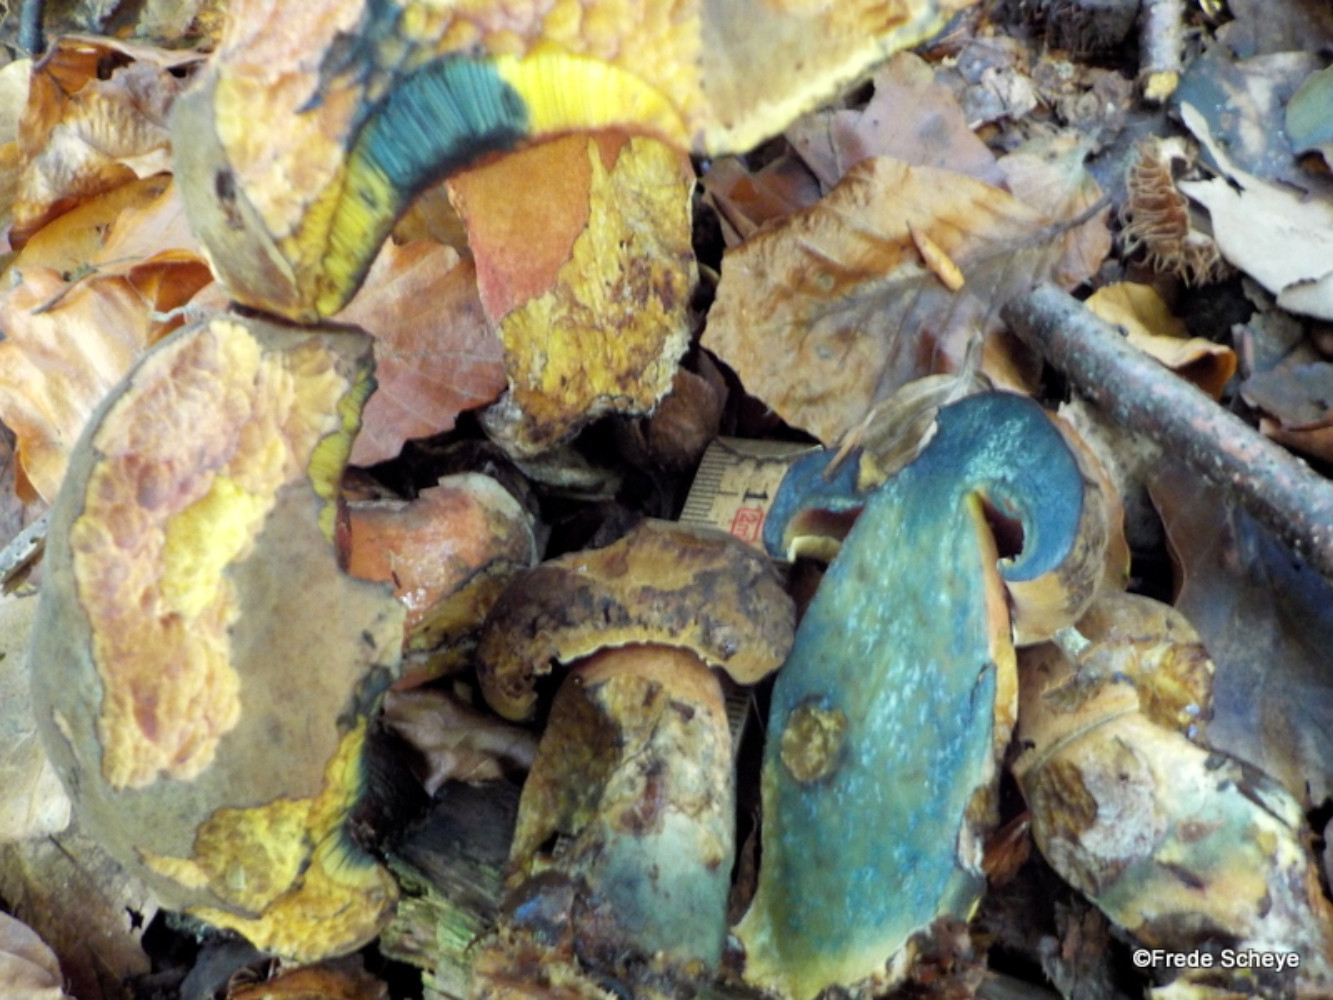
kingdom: Fungi
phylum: Basidiomycota
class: Agaricomycetes
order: Boletales
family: Boletaceae
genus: Neoboletus
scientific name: Neoboletus erythropus
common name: punktstokket indigorørhat
